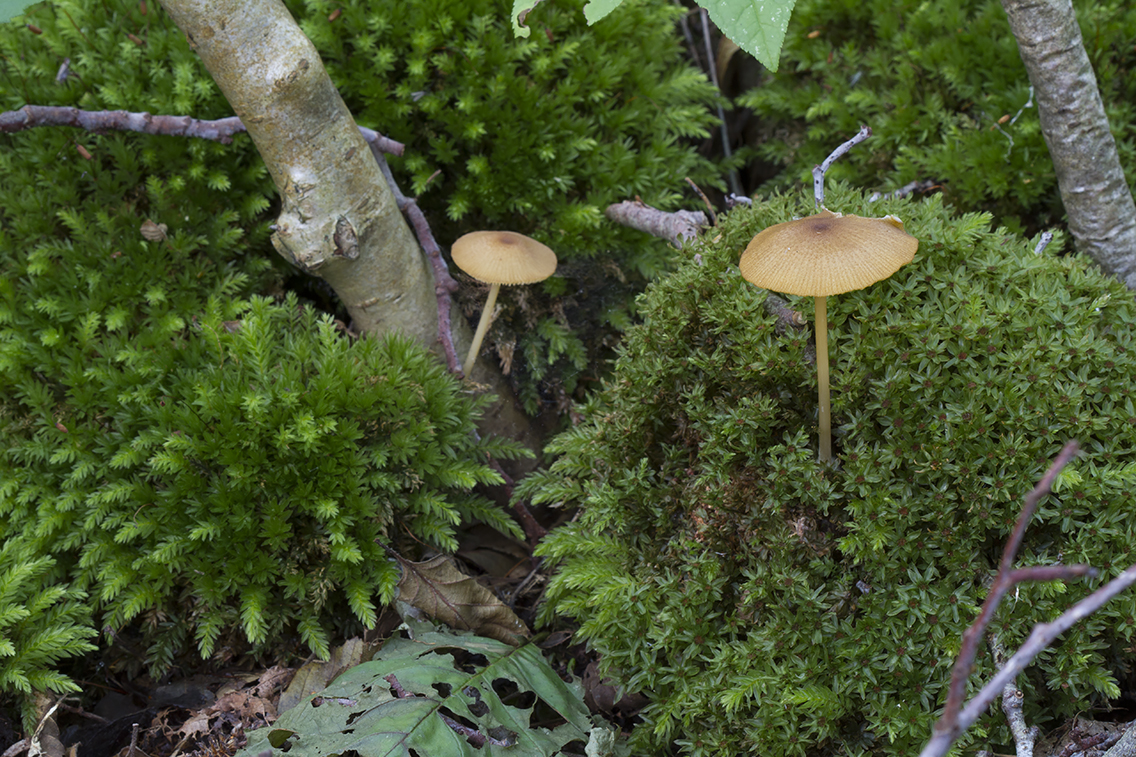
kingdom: Fungi
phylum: Basidiomycota
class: Agaricomycetes
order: Agaricales
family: Entolomataceae
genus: Entoloma
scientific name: Entoloma formosum
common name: brungul rødblad
